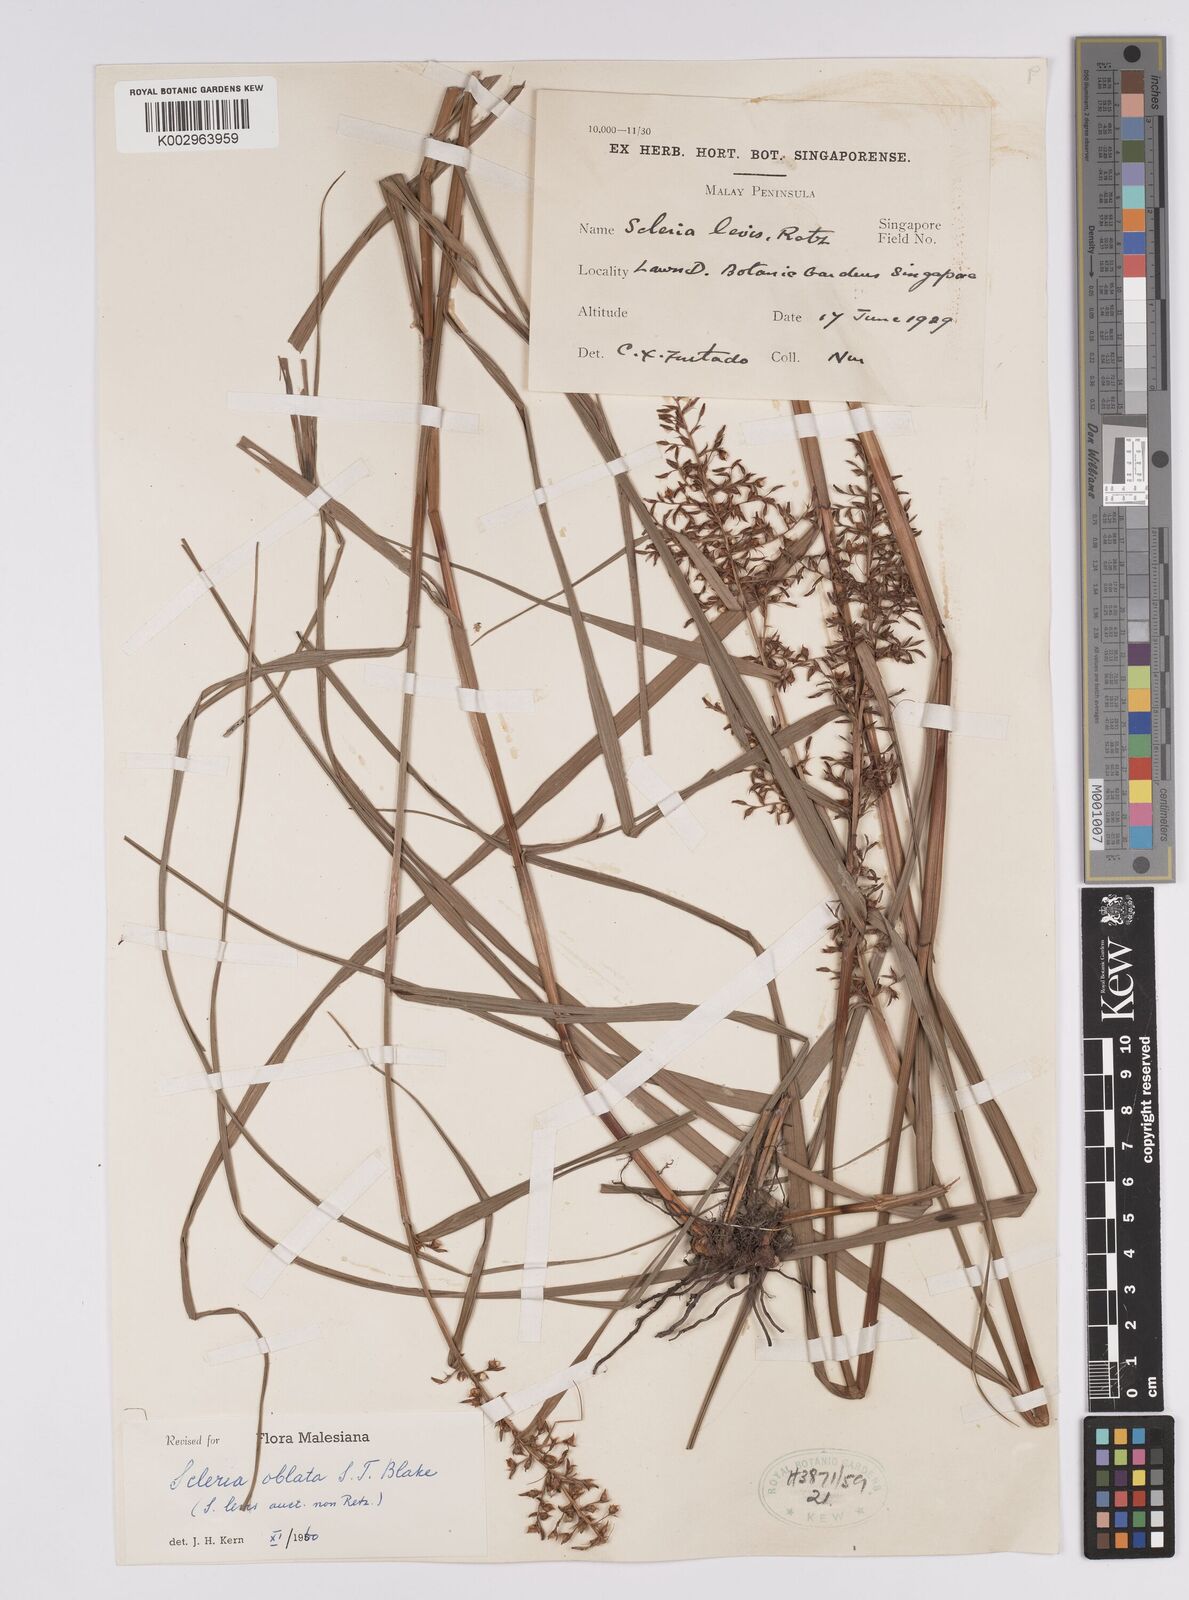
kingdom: Plantae
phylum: Tracheophyta
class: Liliopsida
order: Poales
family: Cyperaceae
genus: Scleria
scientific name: Scleria oblata
